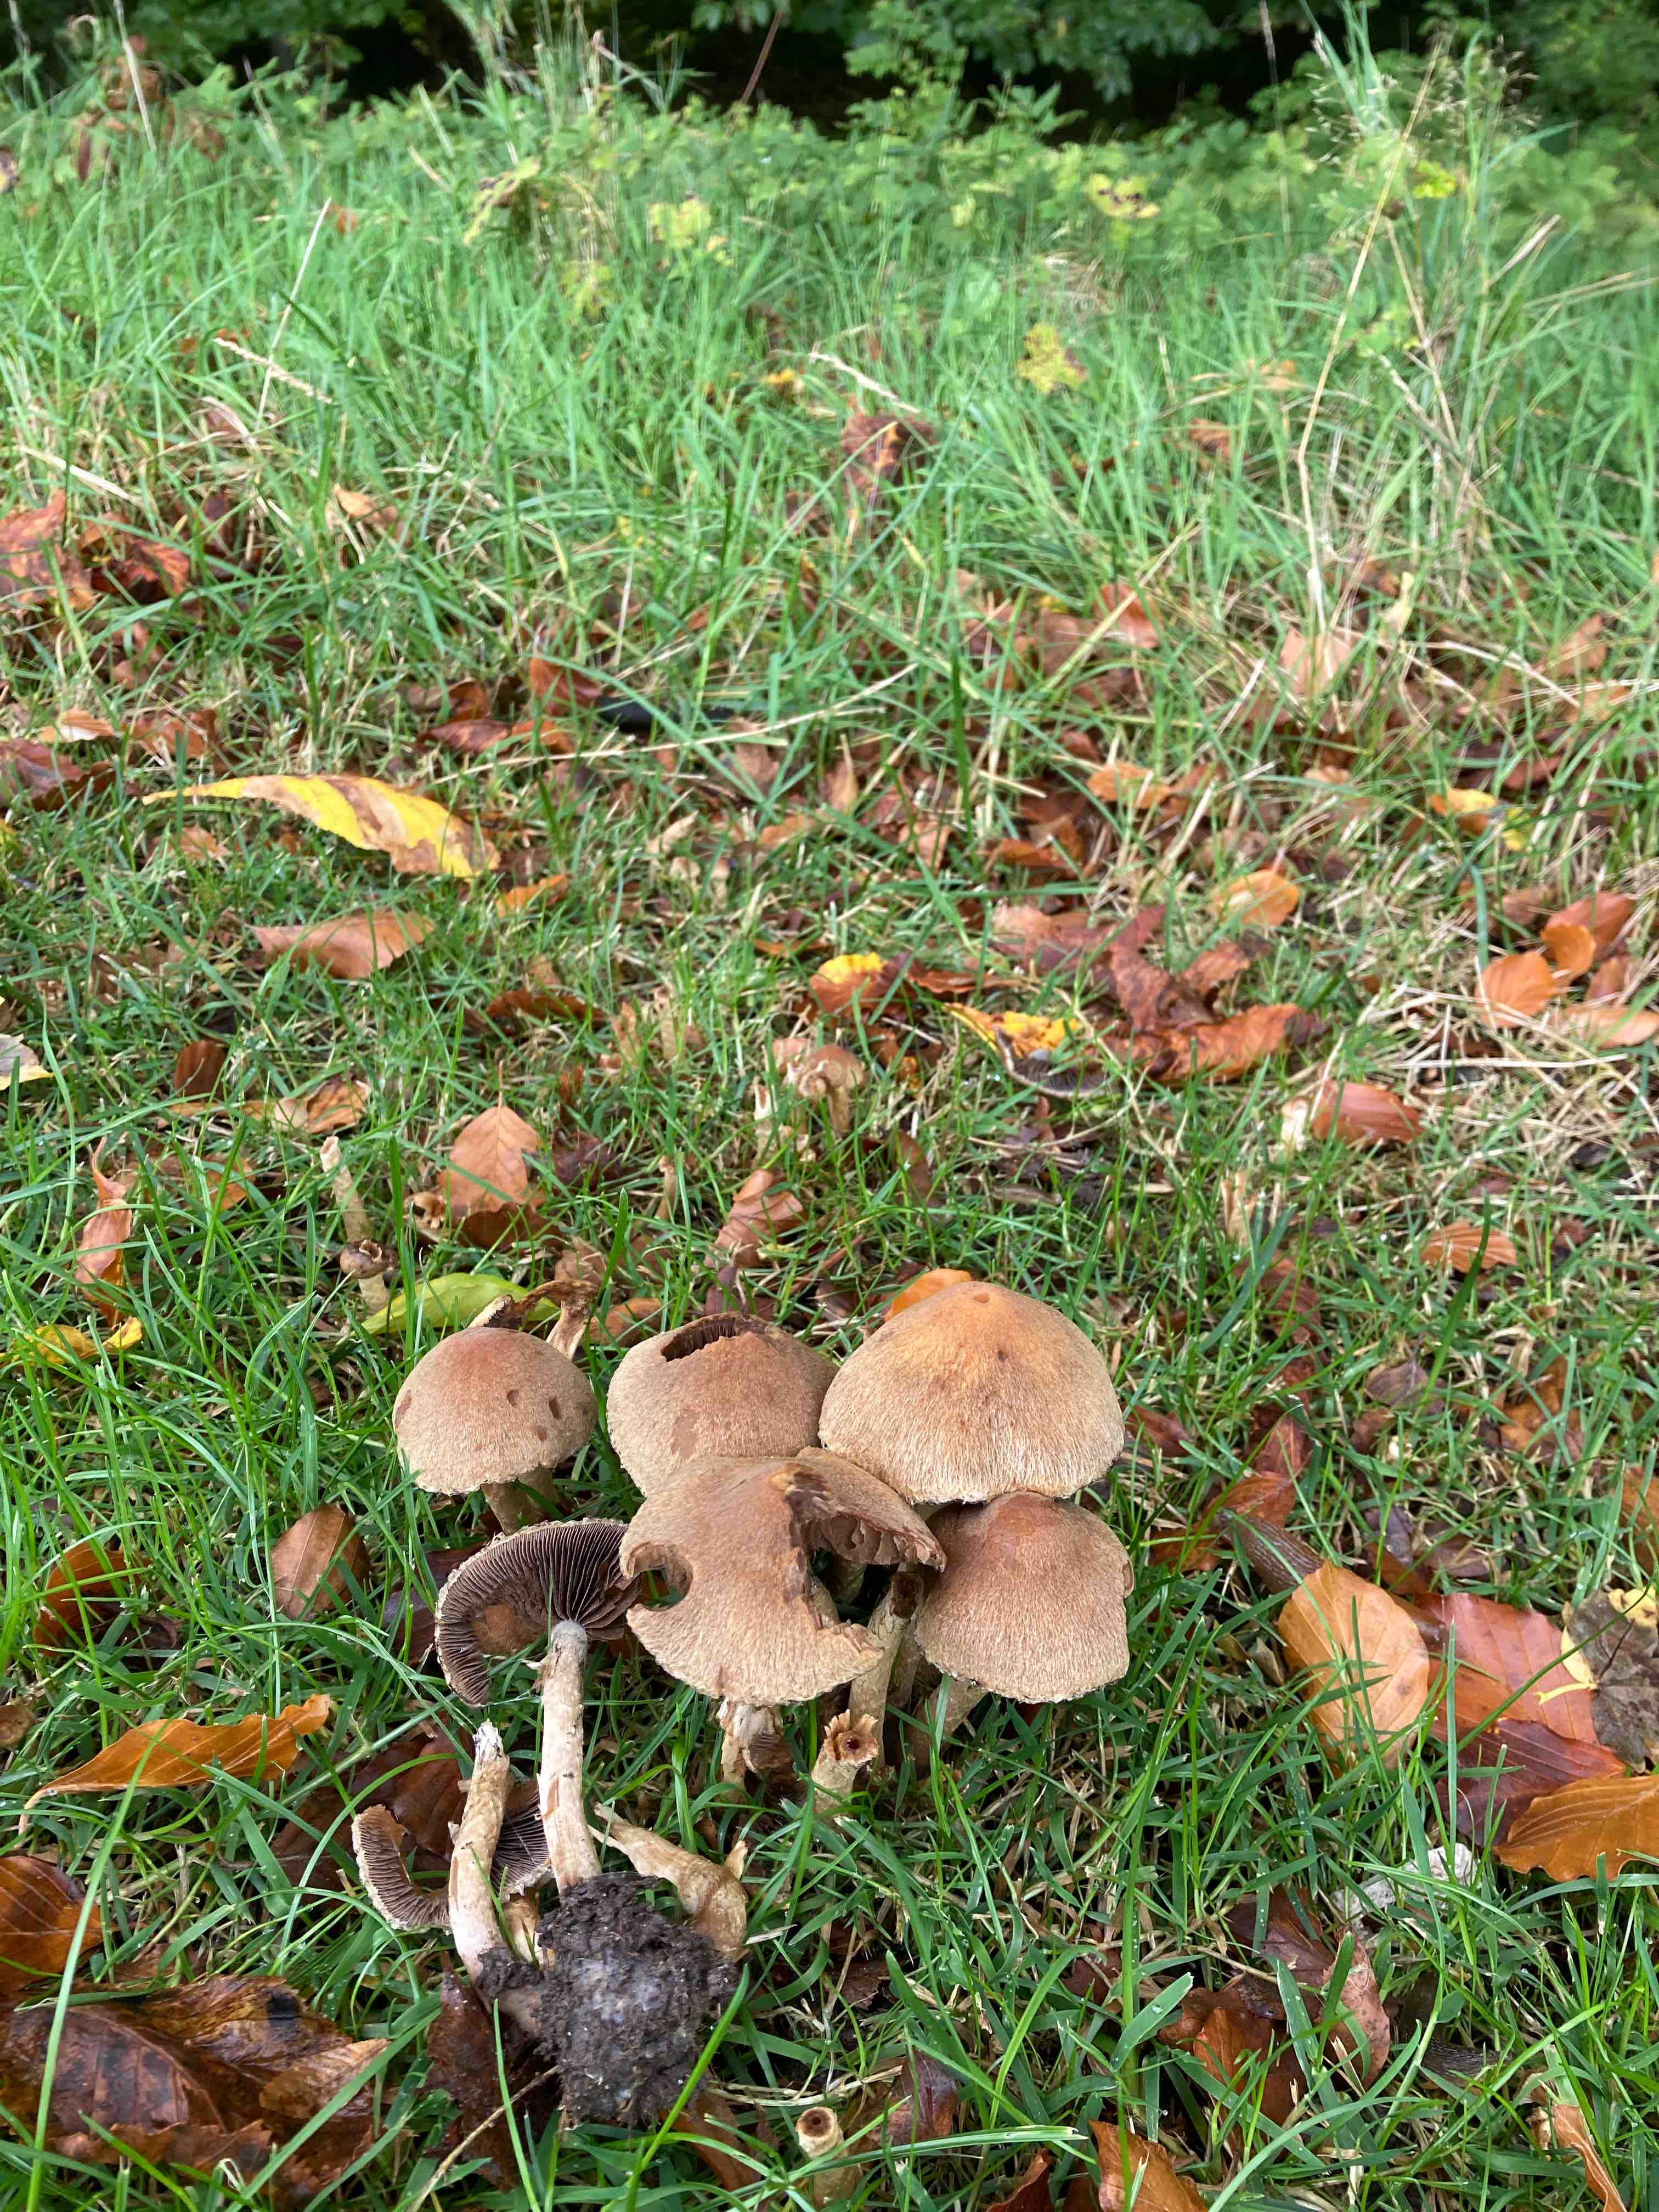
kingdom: Fungi
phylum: Basidiomycota
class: Agaricomycetes
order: Agaricales
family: Psathyrellaceae
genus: Lacrymaria
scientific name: Lacrymaria lacrymabunda
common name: grædende mørkhat
